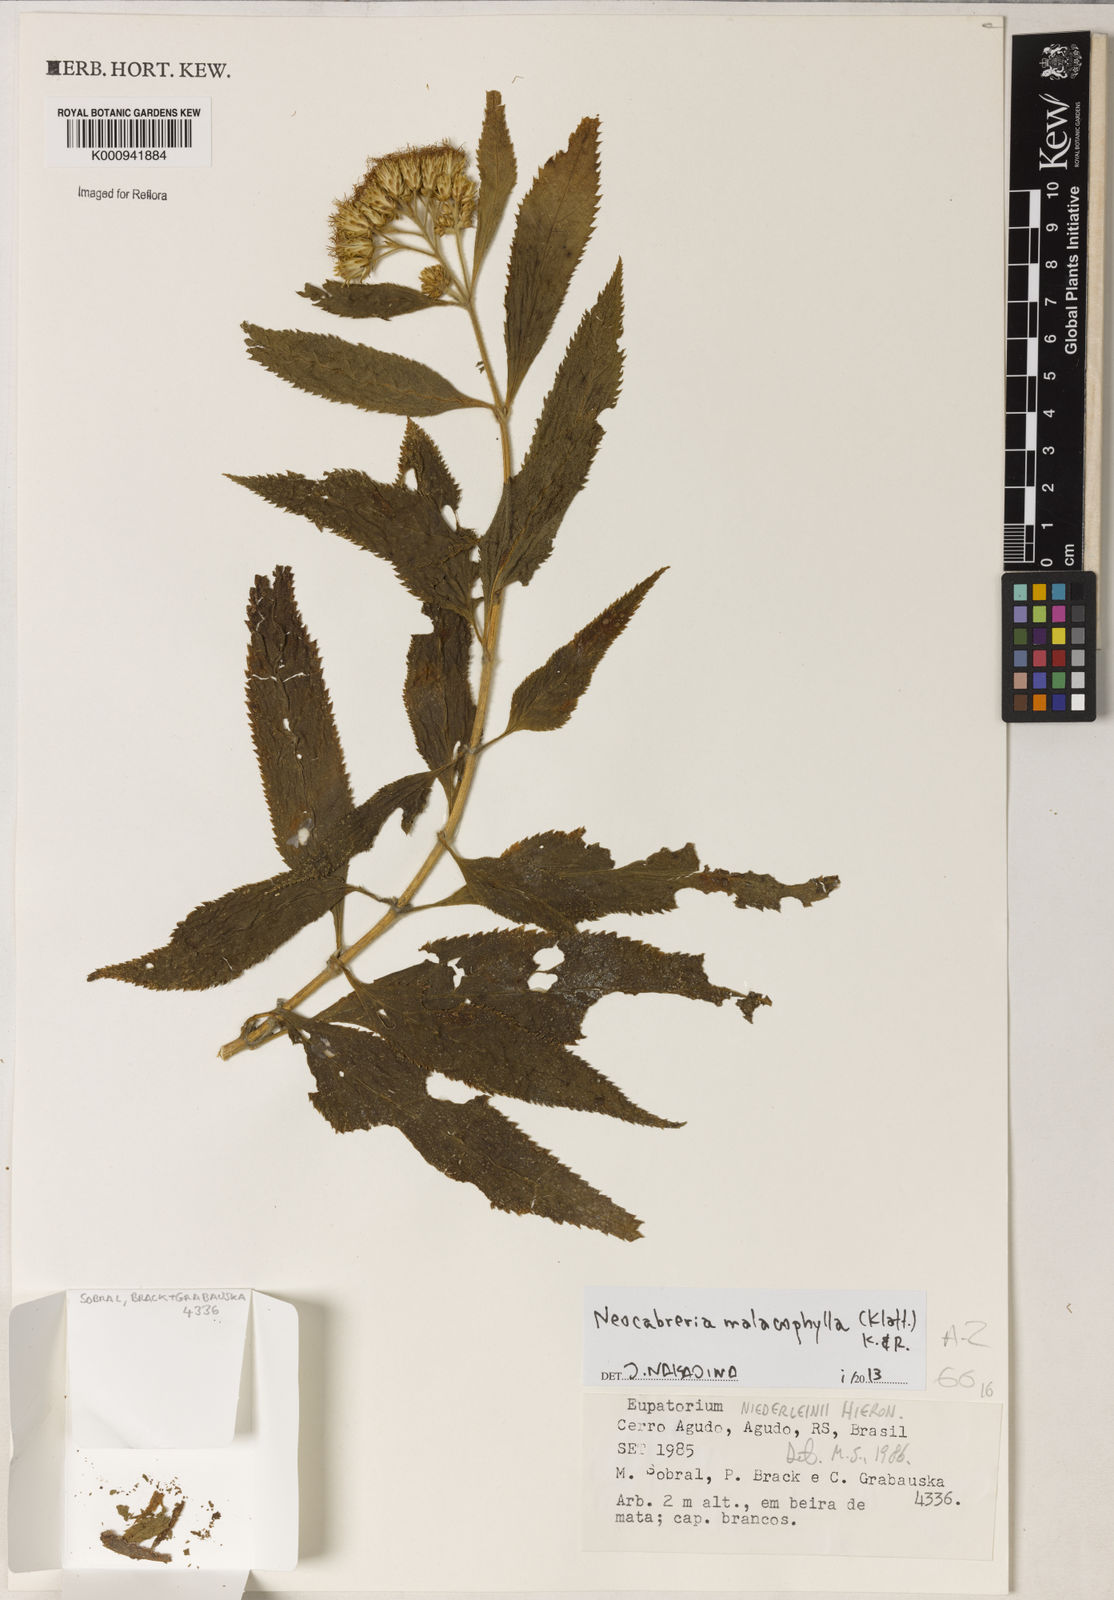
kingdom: Plantae
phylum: Tracheophyta
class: Magnoliopsida
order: Asterales
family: Asteraceae
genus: Neocabreria
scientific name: Neocabreria
